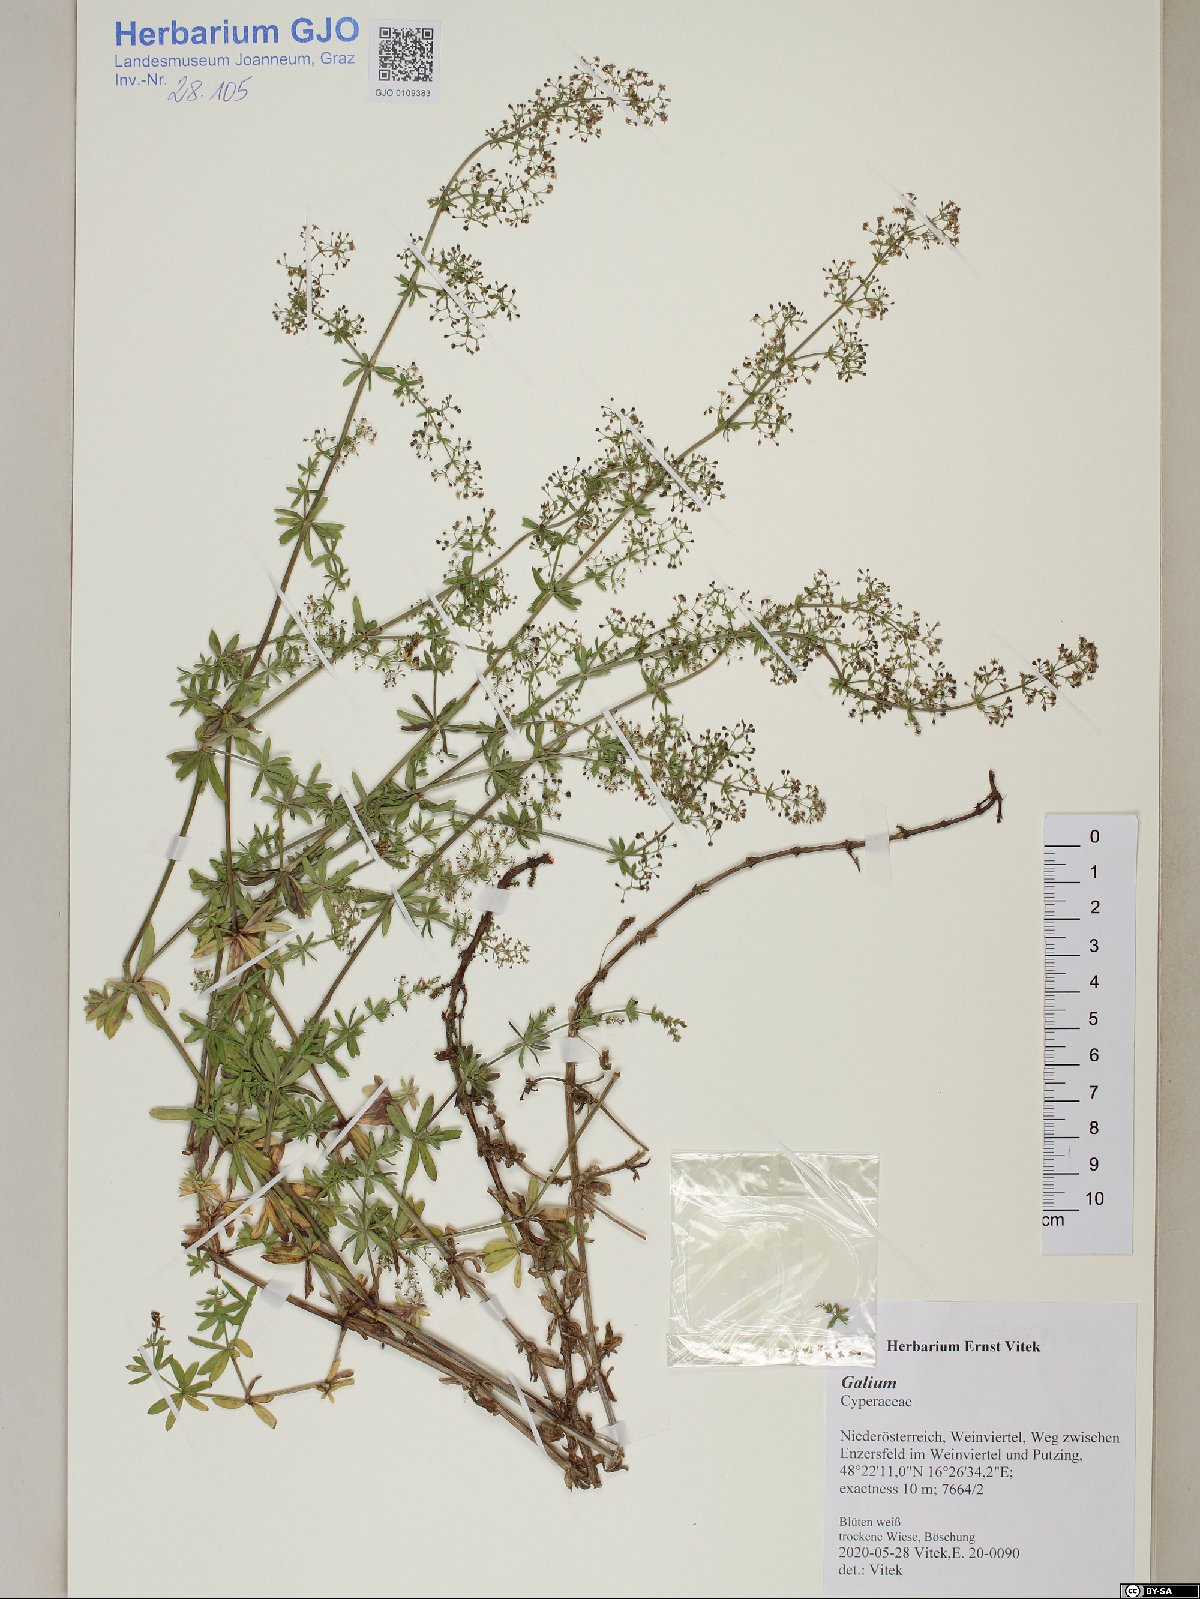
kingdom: Plantae
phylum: Tracheophyta
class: Magnoliopsida
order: Gentianales
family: Rubiaceae
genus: Galium
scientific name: Galium
